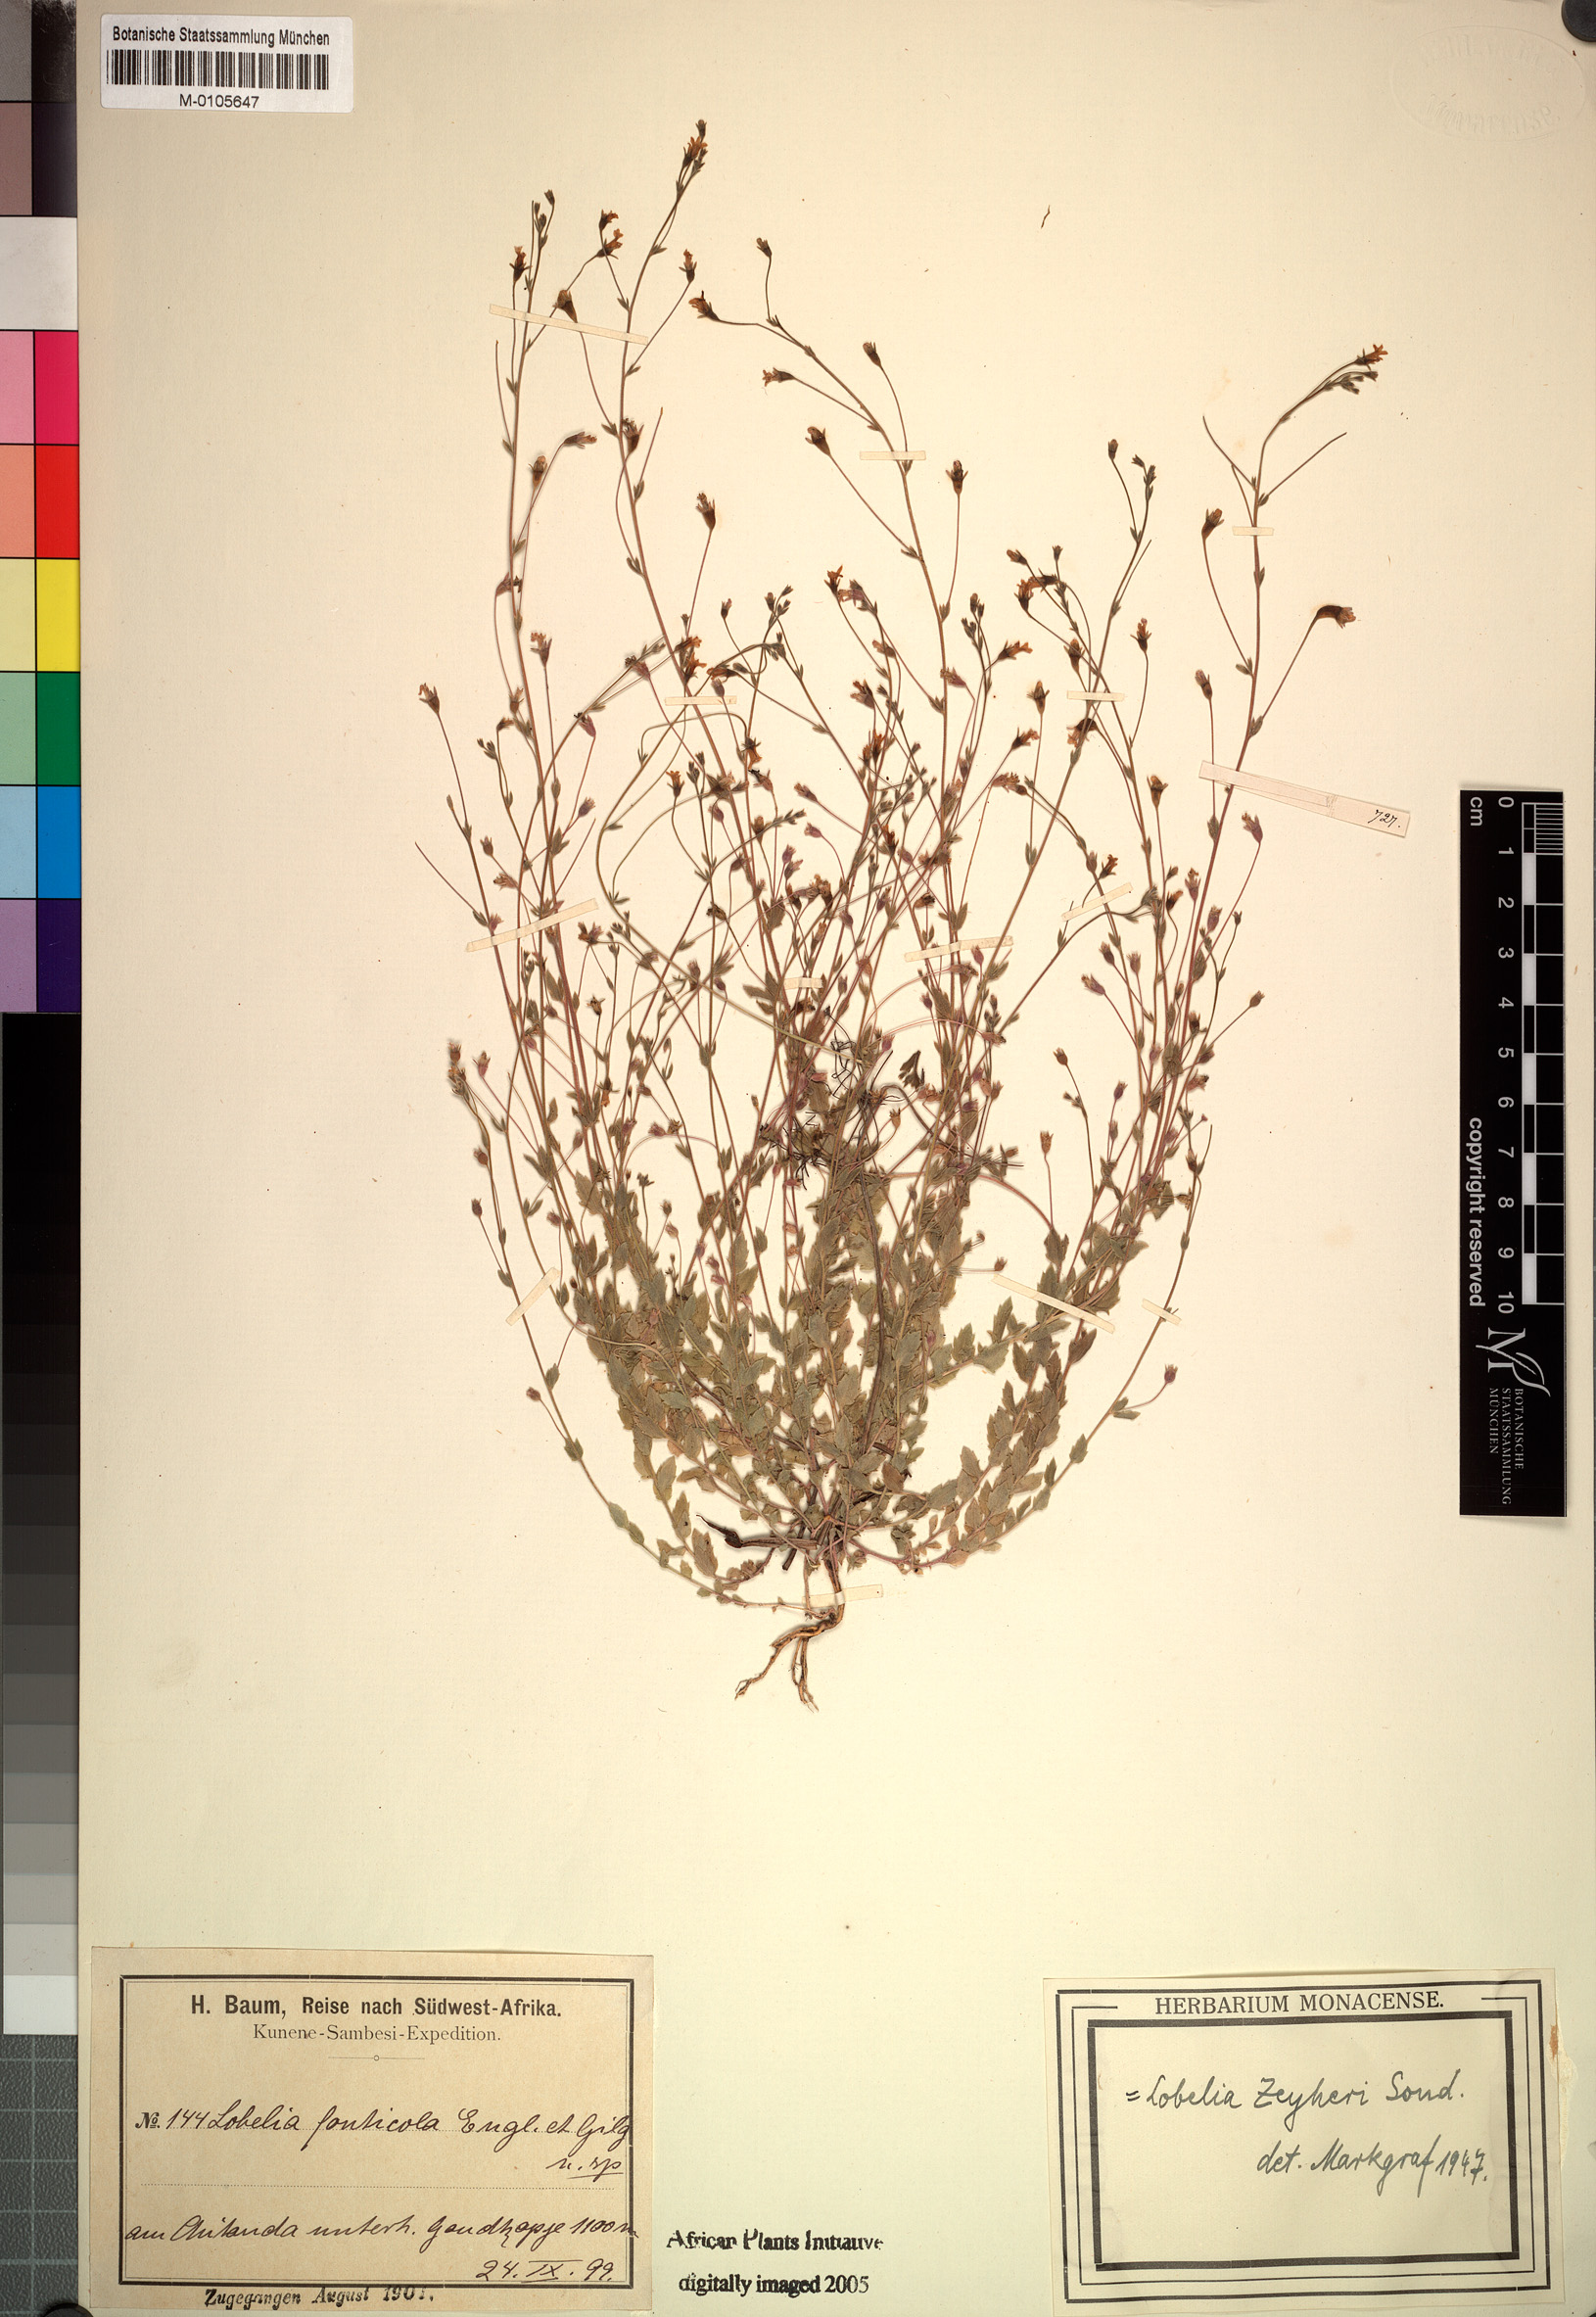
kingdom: Plantae
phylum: Tracheophyta
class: Magnoliopsida
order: Asterales
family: Campanulaceae
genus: Monopsis
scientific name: Monopsis zeyheri
